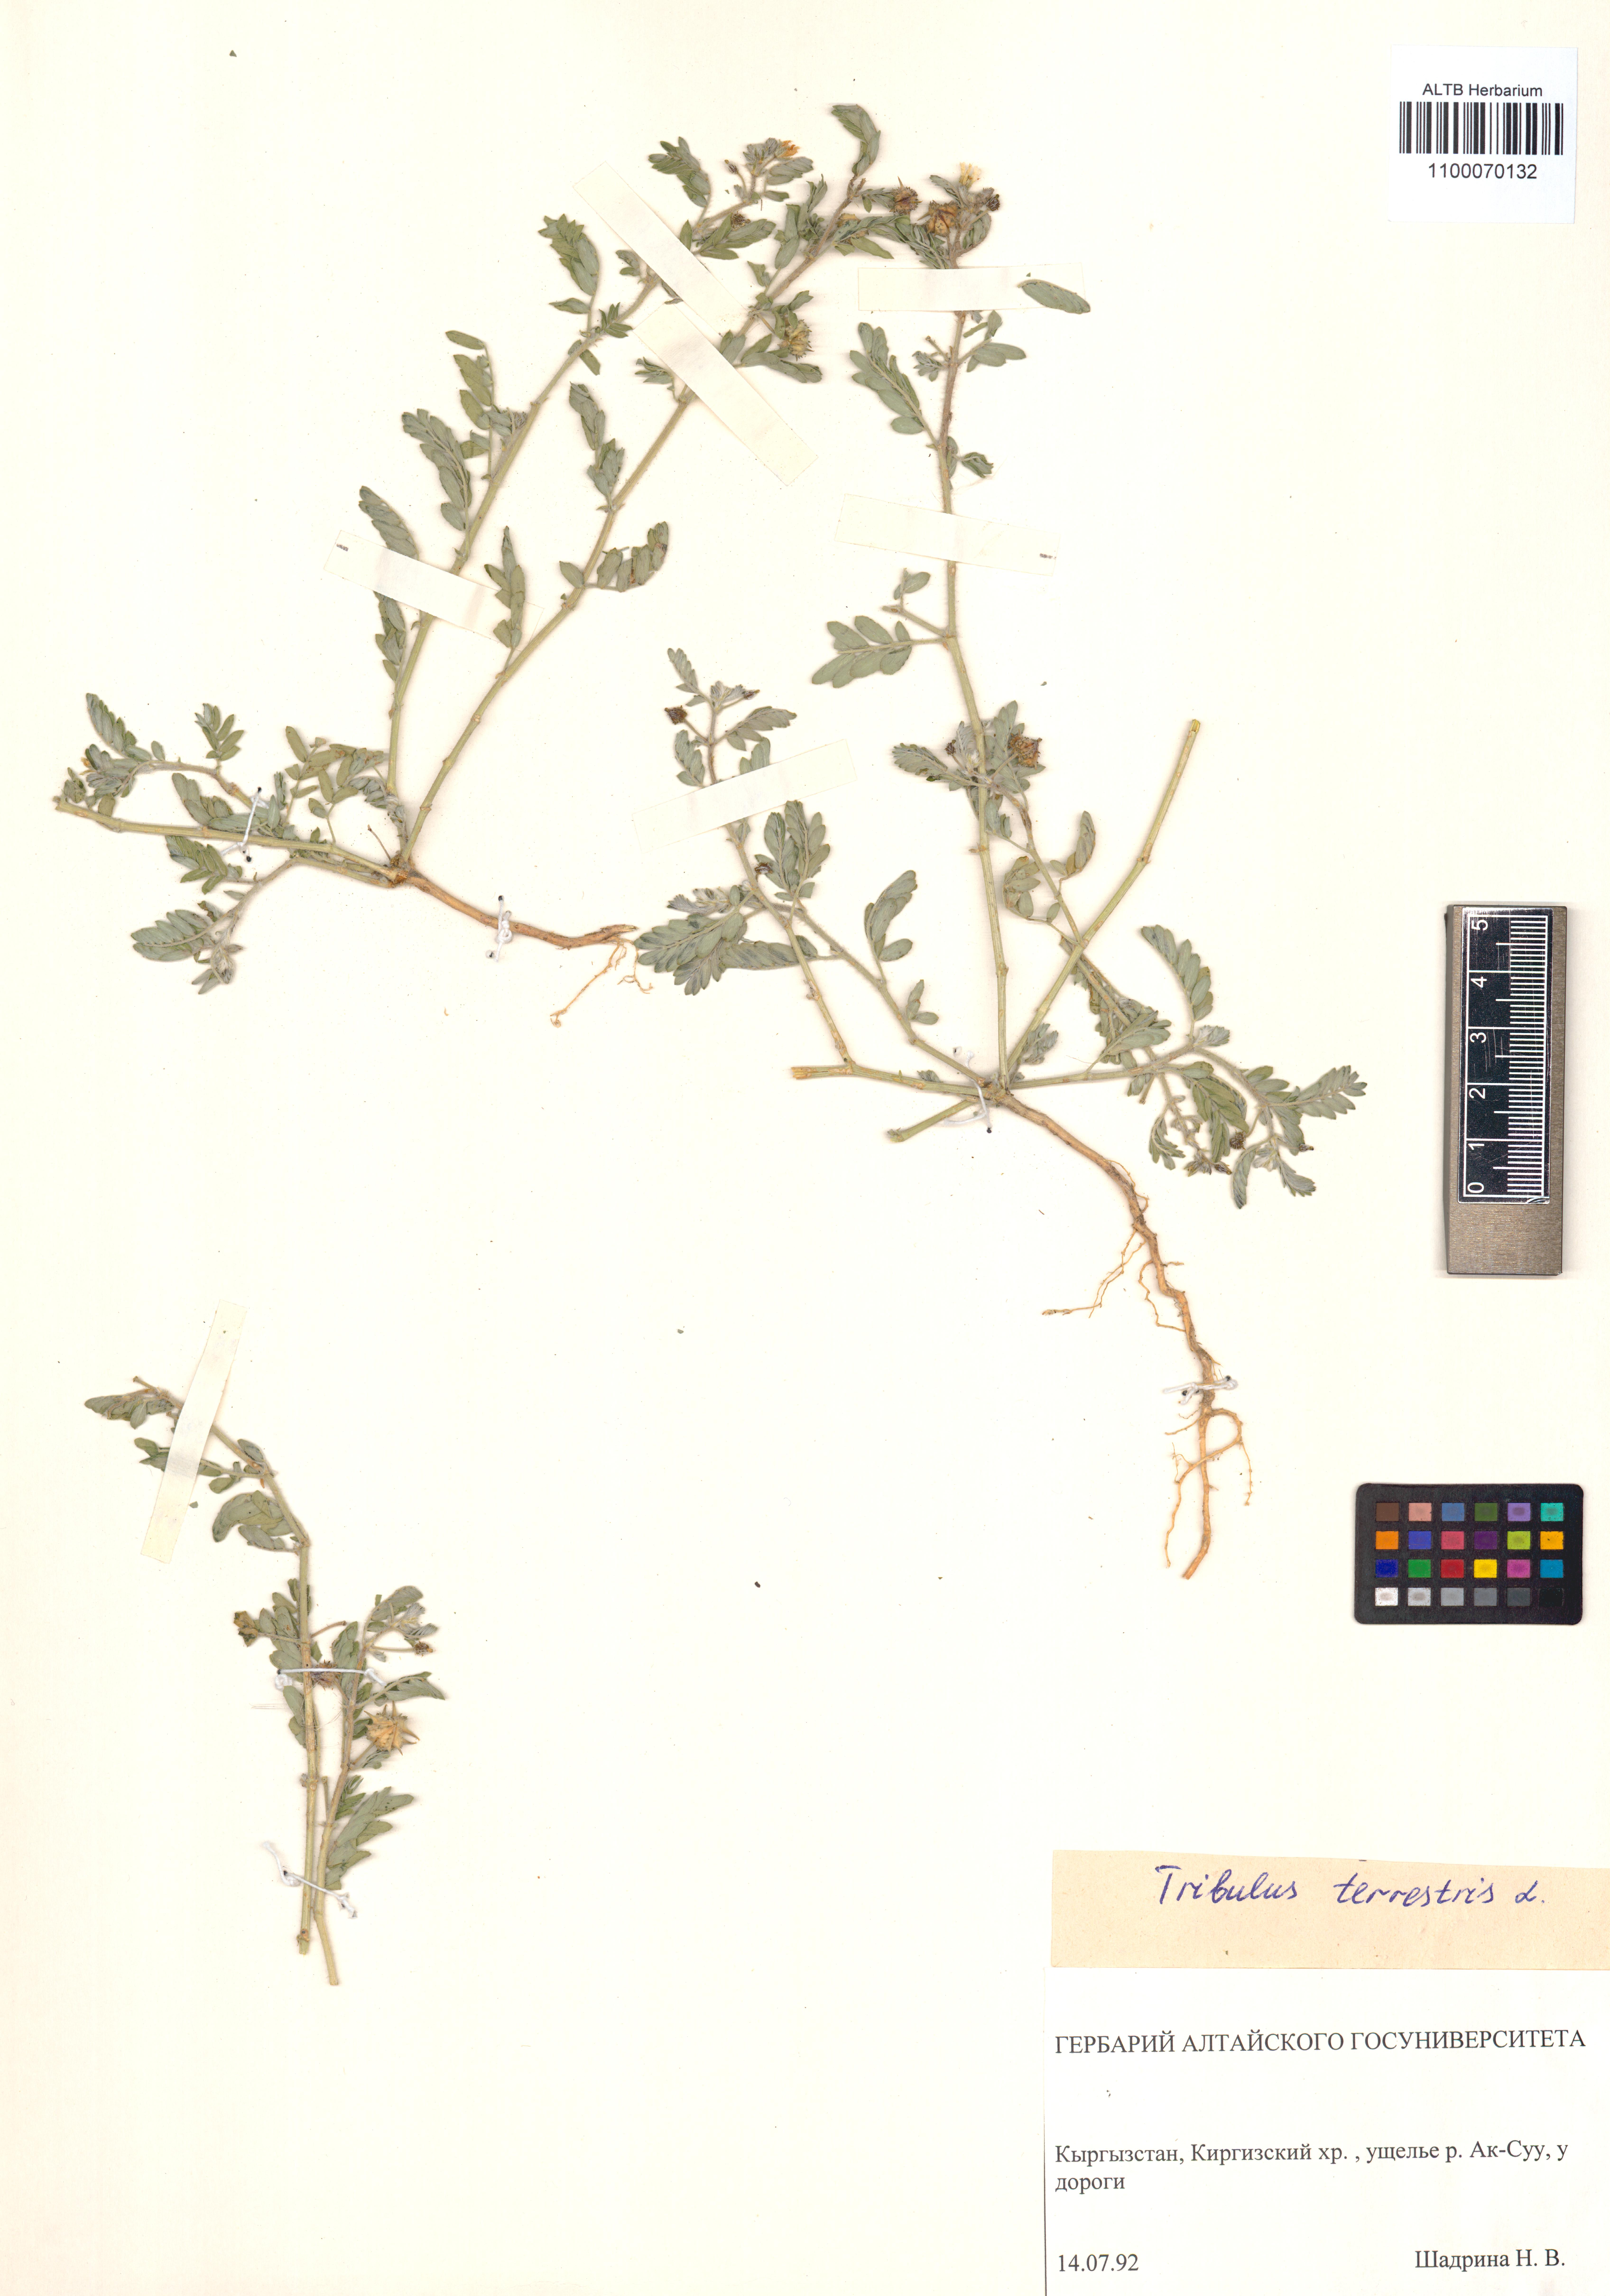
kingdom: Plantae
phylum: Tracheophyta
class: Magnoliopsida
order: Zygophyllales
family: Zygophyllaceae
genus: Tribulus
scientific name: Tribulus terrestris
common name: Puncturevine
